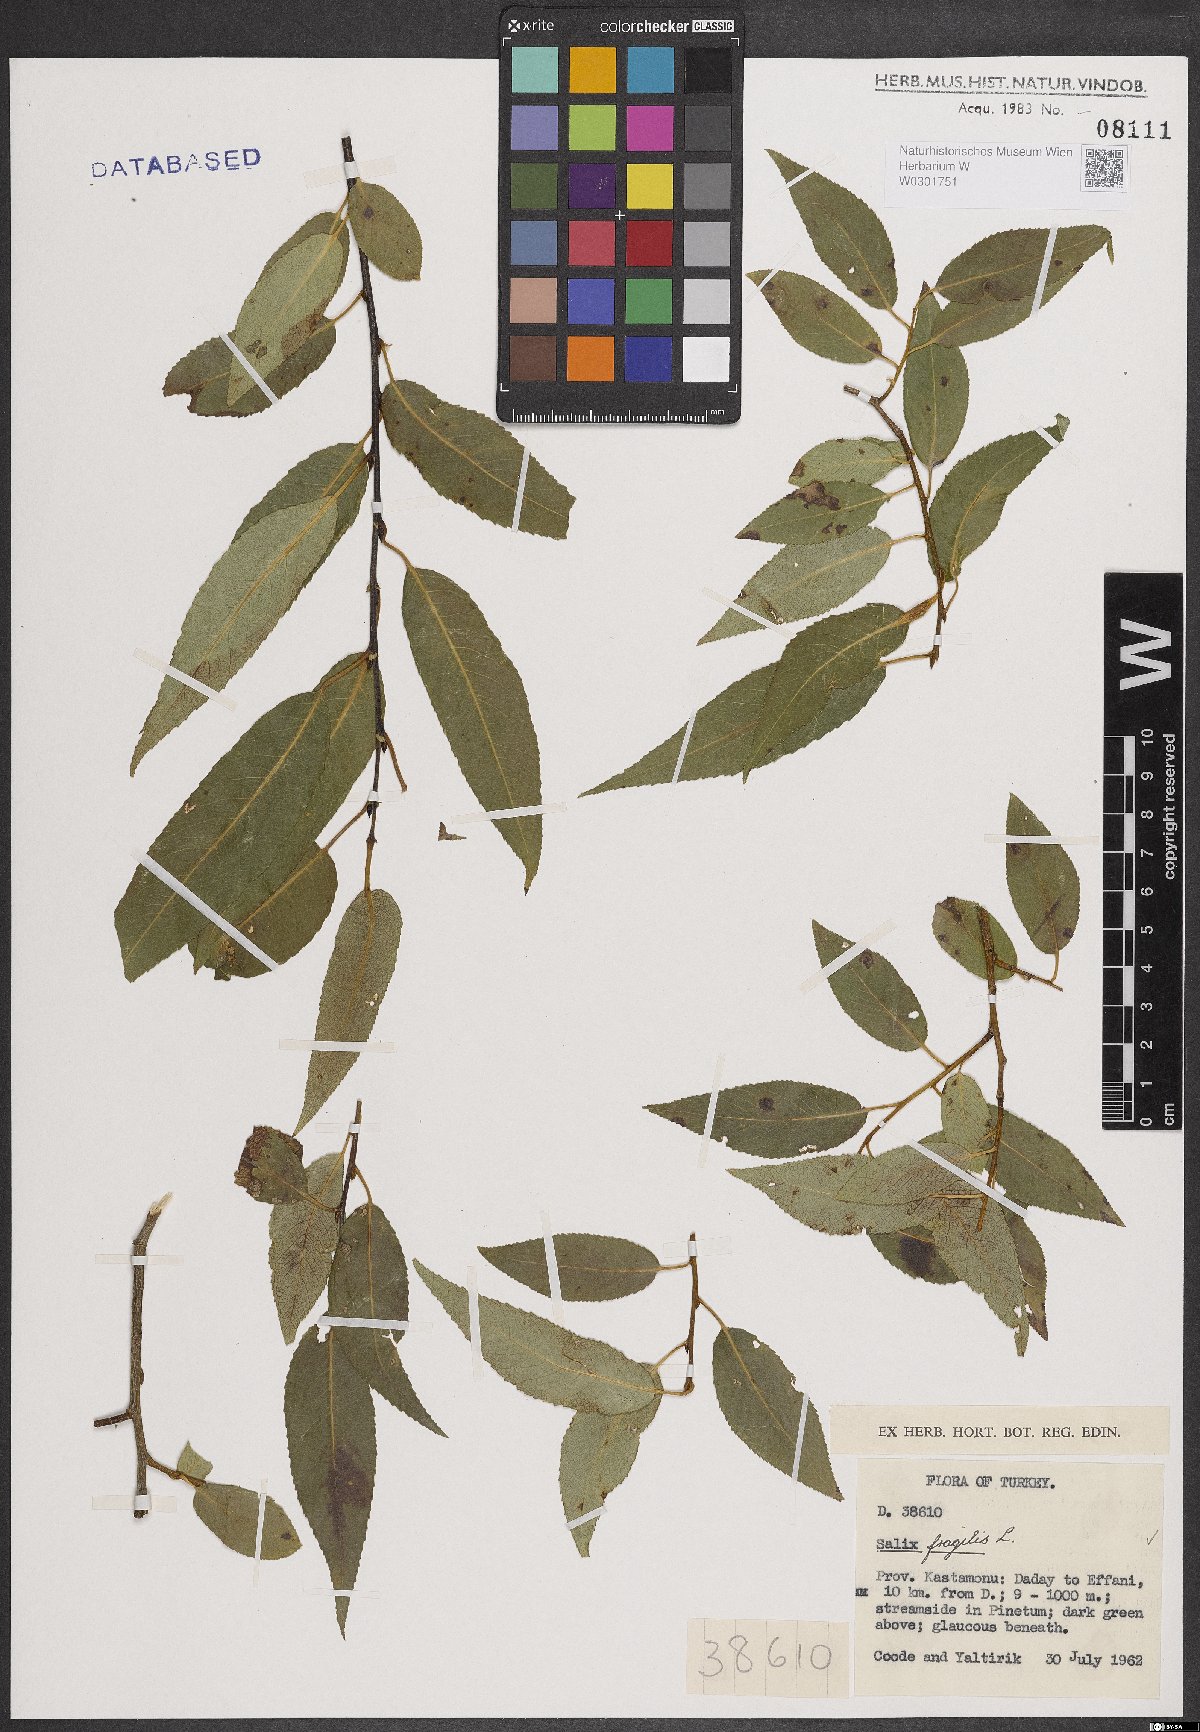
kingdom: Plantae
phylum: Tracheophyta
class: Magnoliopsida
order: Malpighiales
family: Salicaceae
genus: Salix
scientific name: Salix fragilis
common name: Crack willow
